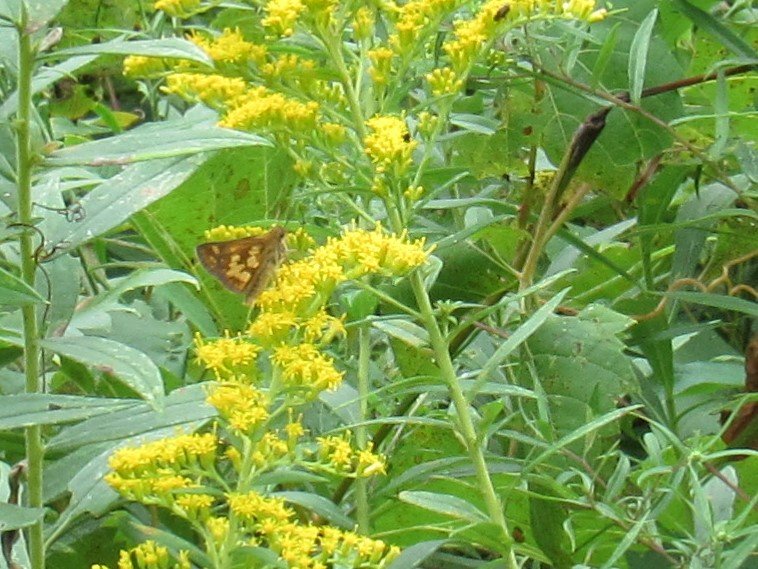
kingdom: Animalia
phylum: Arthropoda
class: Insecta
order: Lepidoptera
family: Hesperiidae
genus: Polites
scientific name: Polites coras
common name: Peck's Skipper
